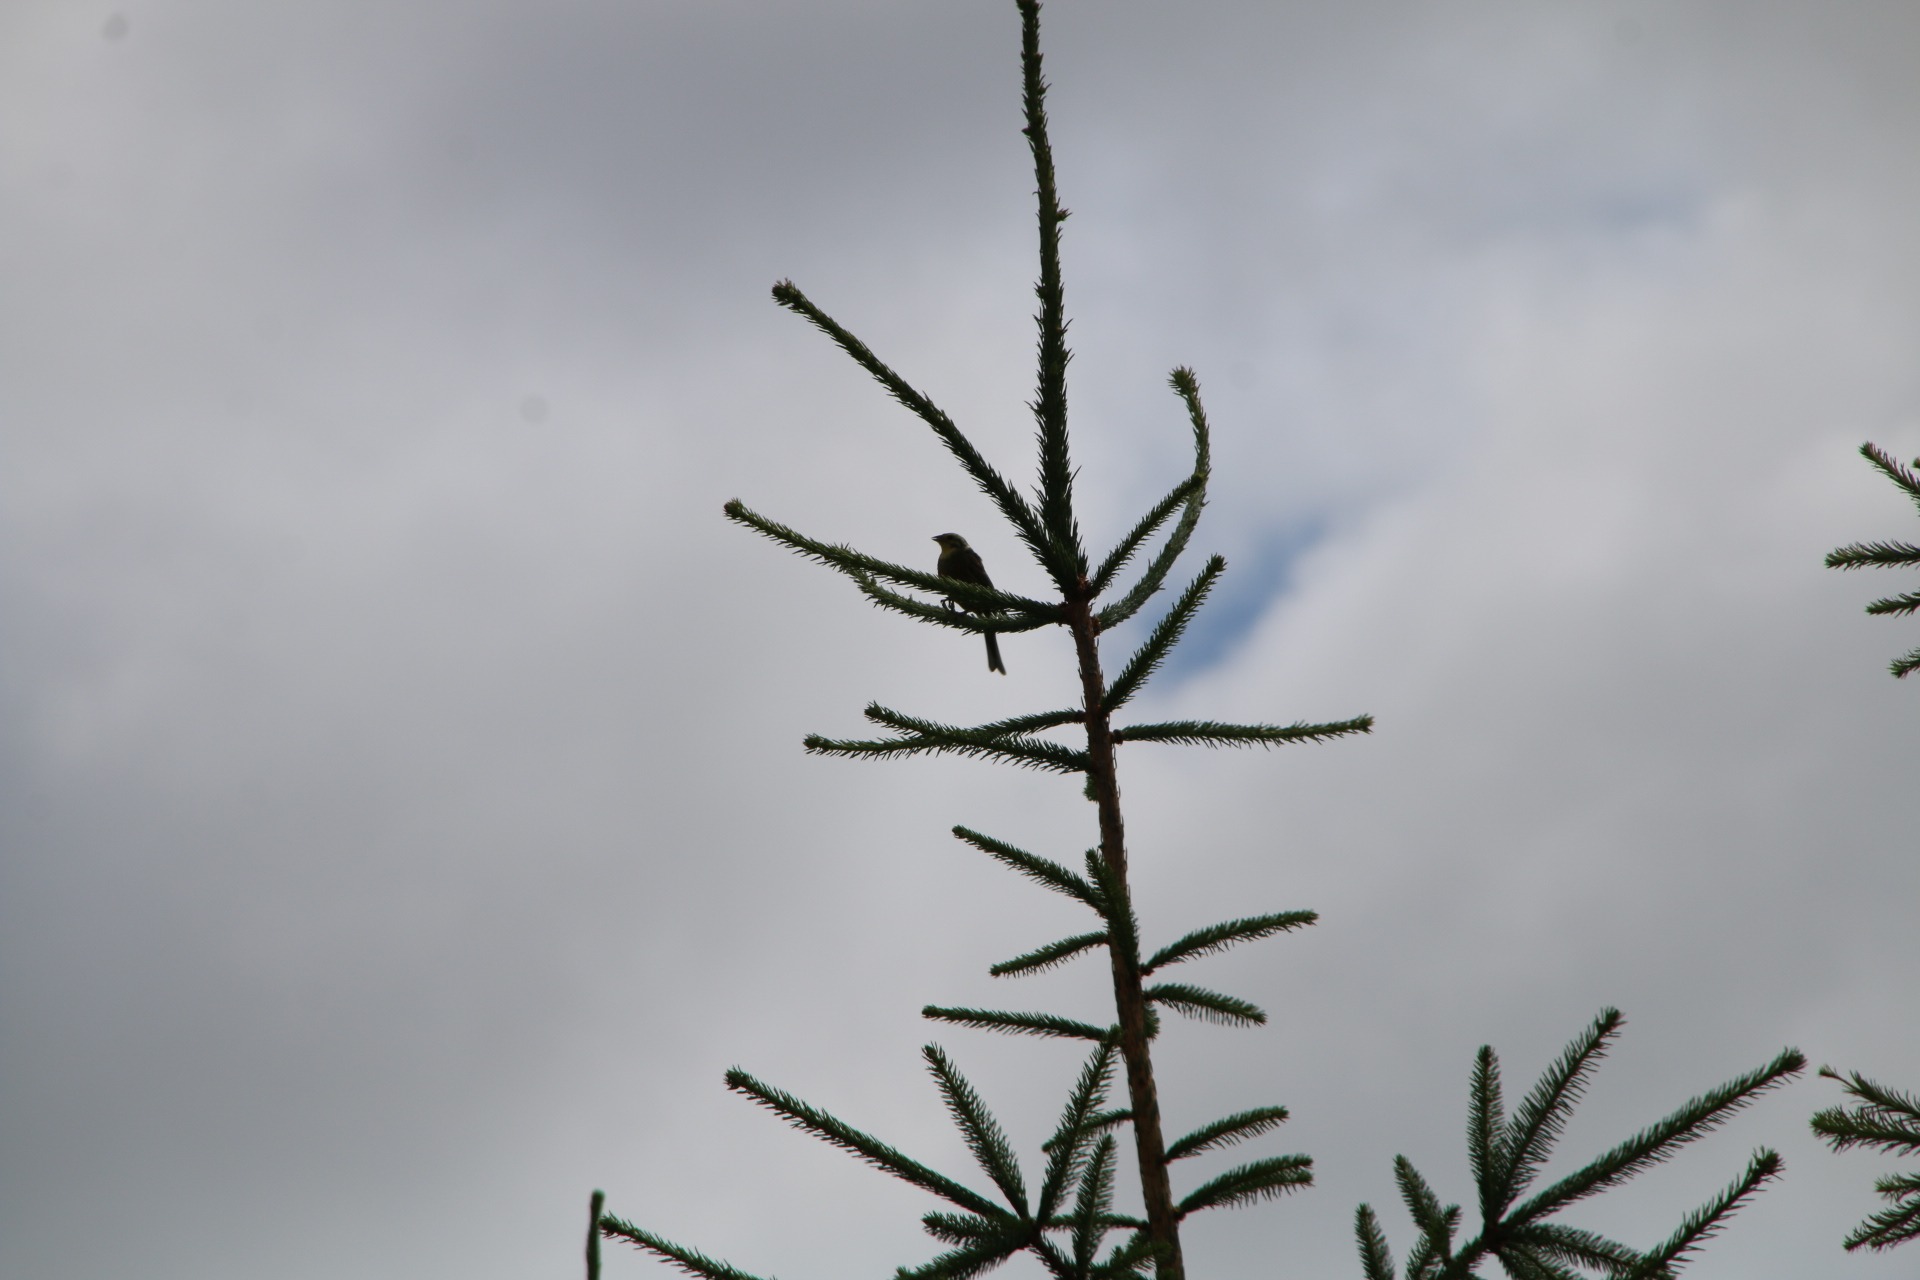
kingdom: Animalia
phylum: Chordata
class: Aves
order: Passeriformes
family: Emberizidae
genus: Emberiza
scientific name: Emberiza citrinella
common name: Gulspurv
